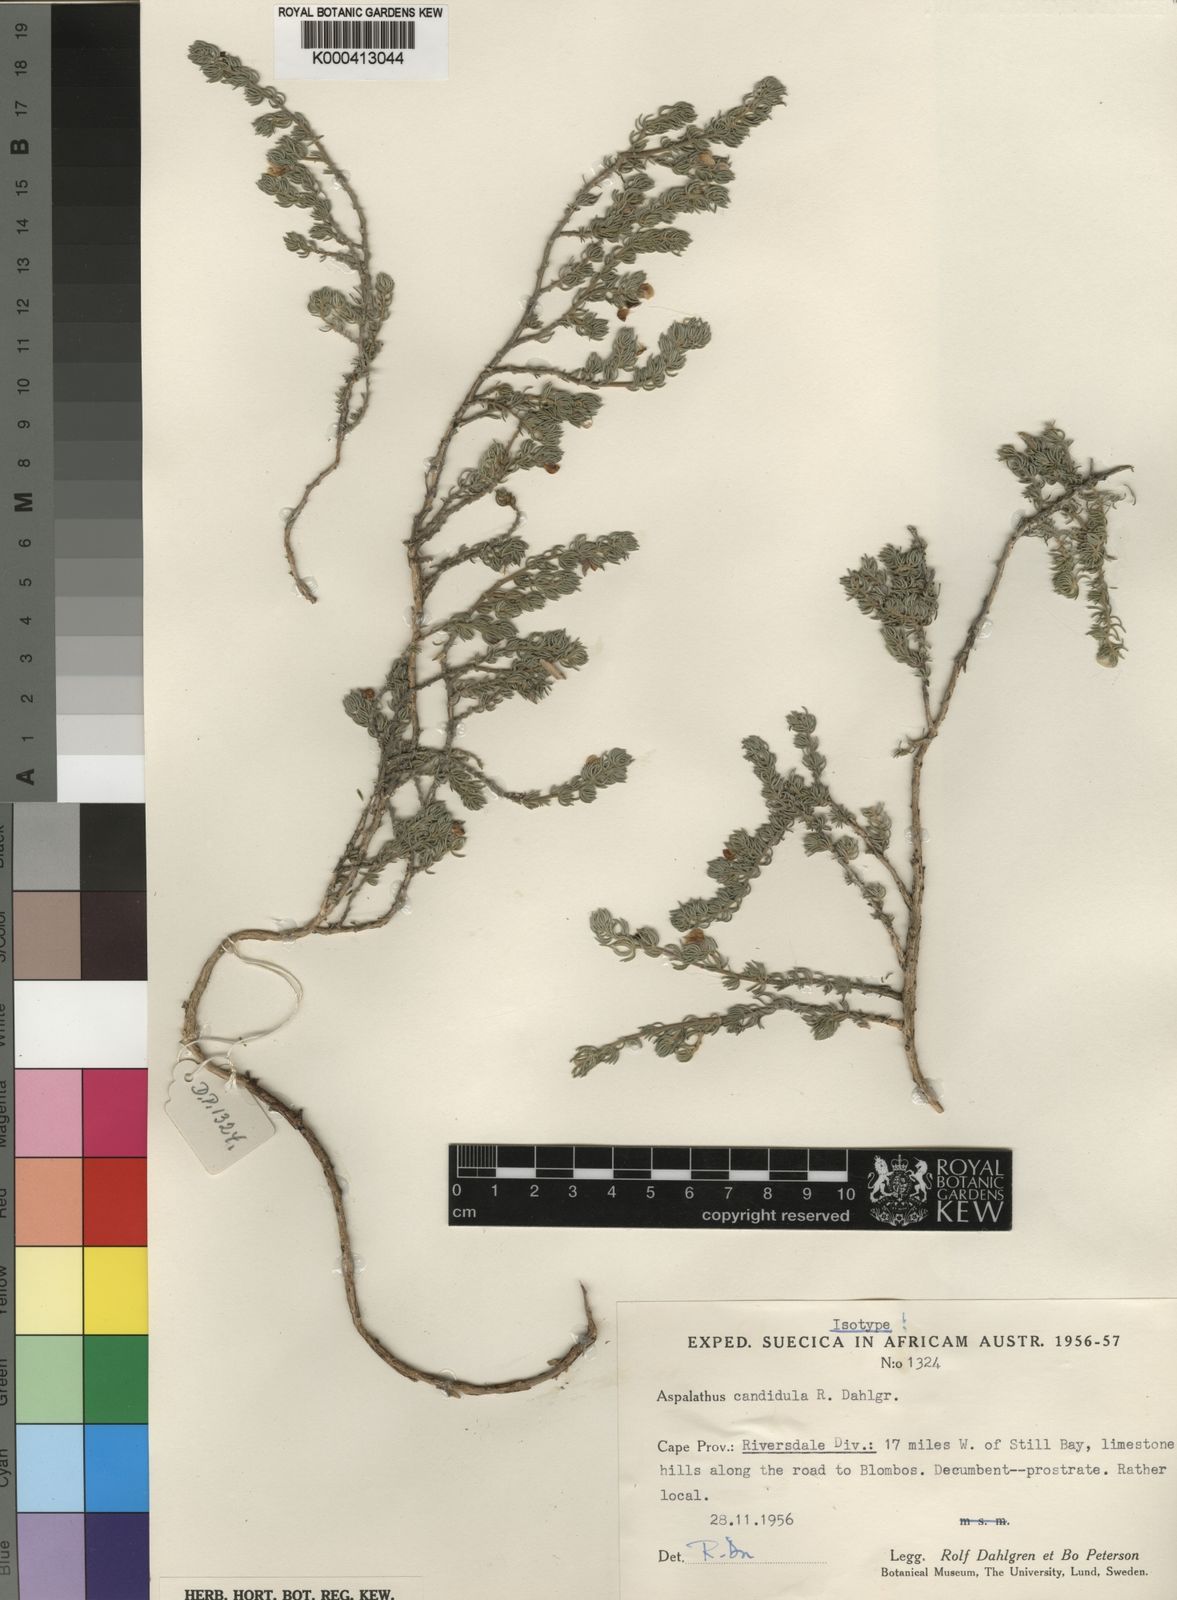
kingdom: Plantae
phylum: Tracheophyta
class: Magnoliopsida
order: Fabales
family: Fabaceae
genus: Aspalathus
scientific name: Aspalathus candidula
